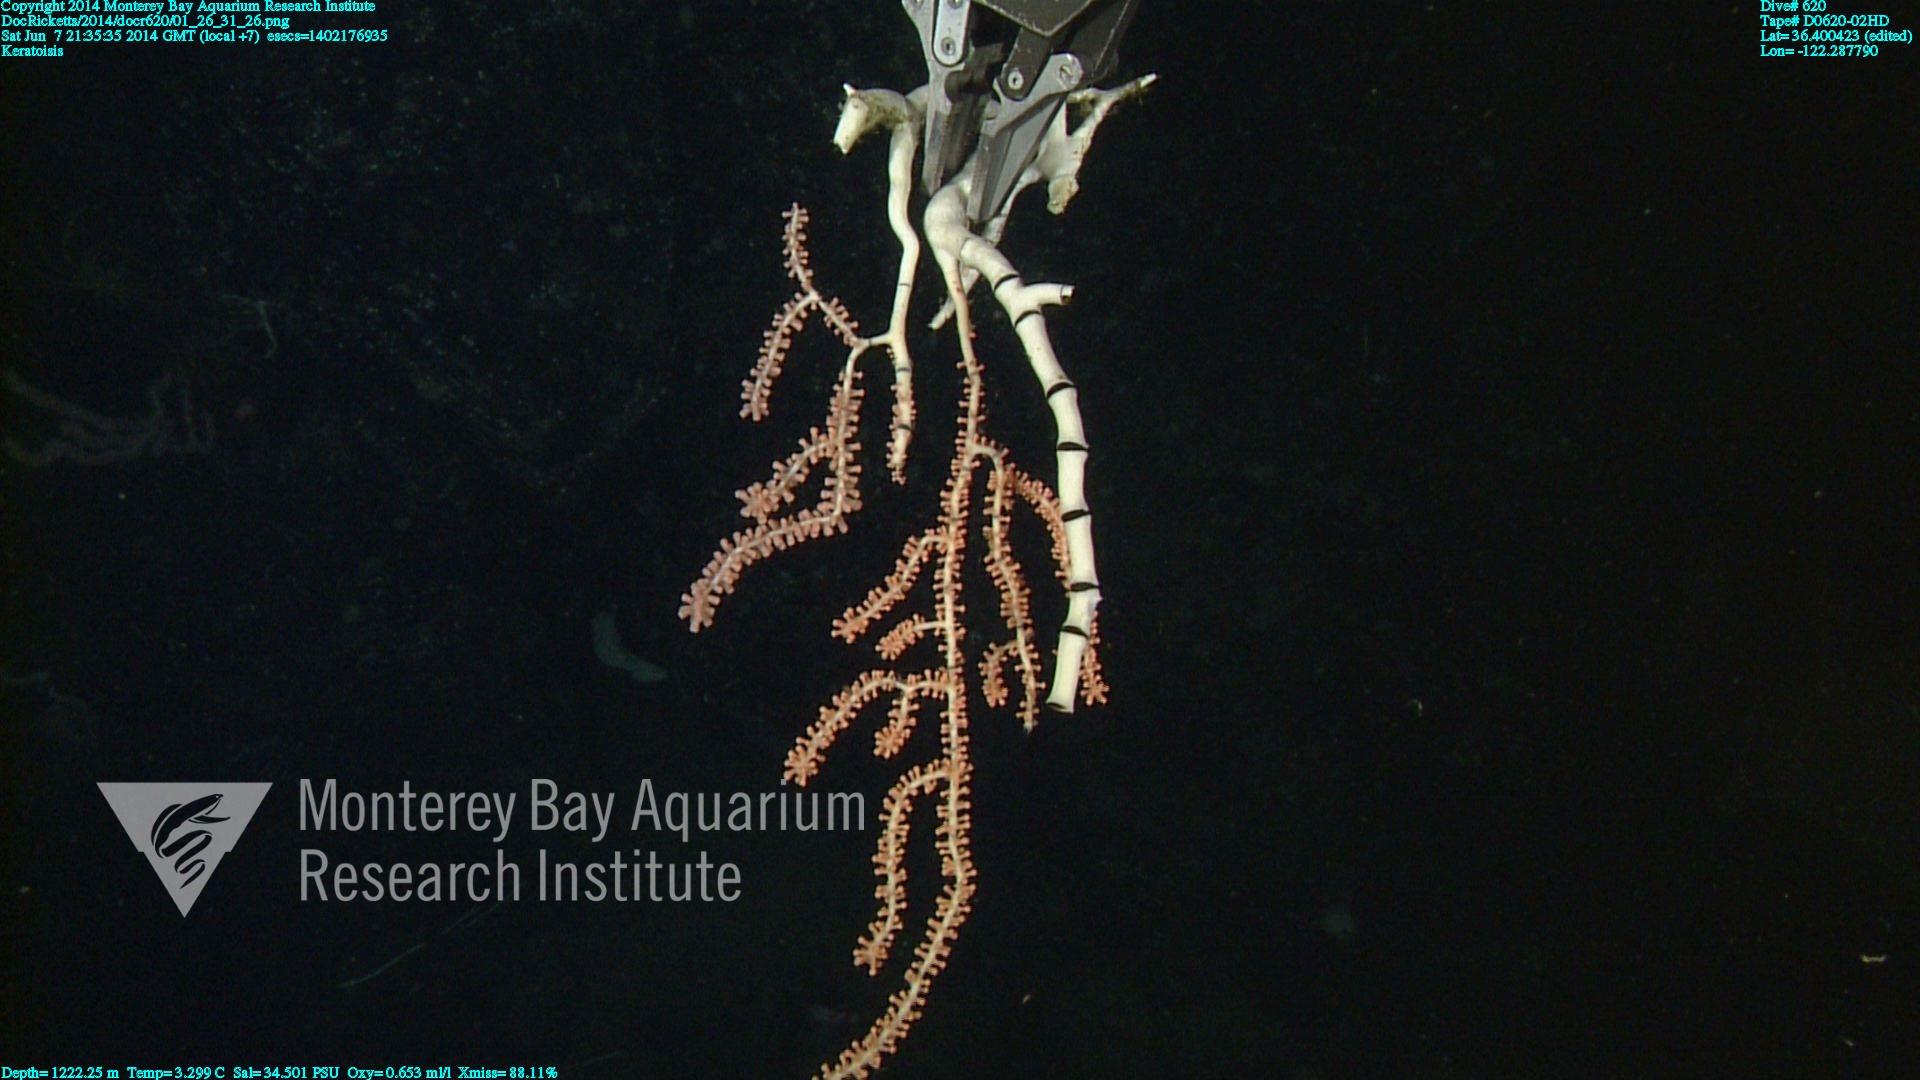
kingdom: Animalia
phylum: Cnidaria
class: Anthozoa
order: Scleralcyonacea
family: Keratoisididae
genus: Keratoisis
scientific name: Keratoisis
